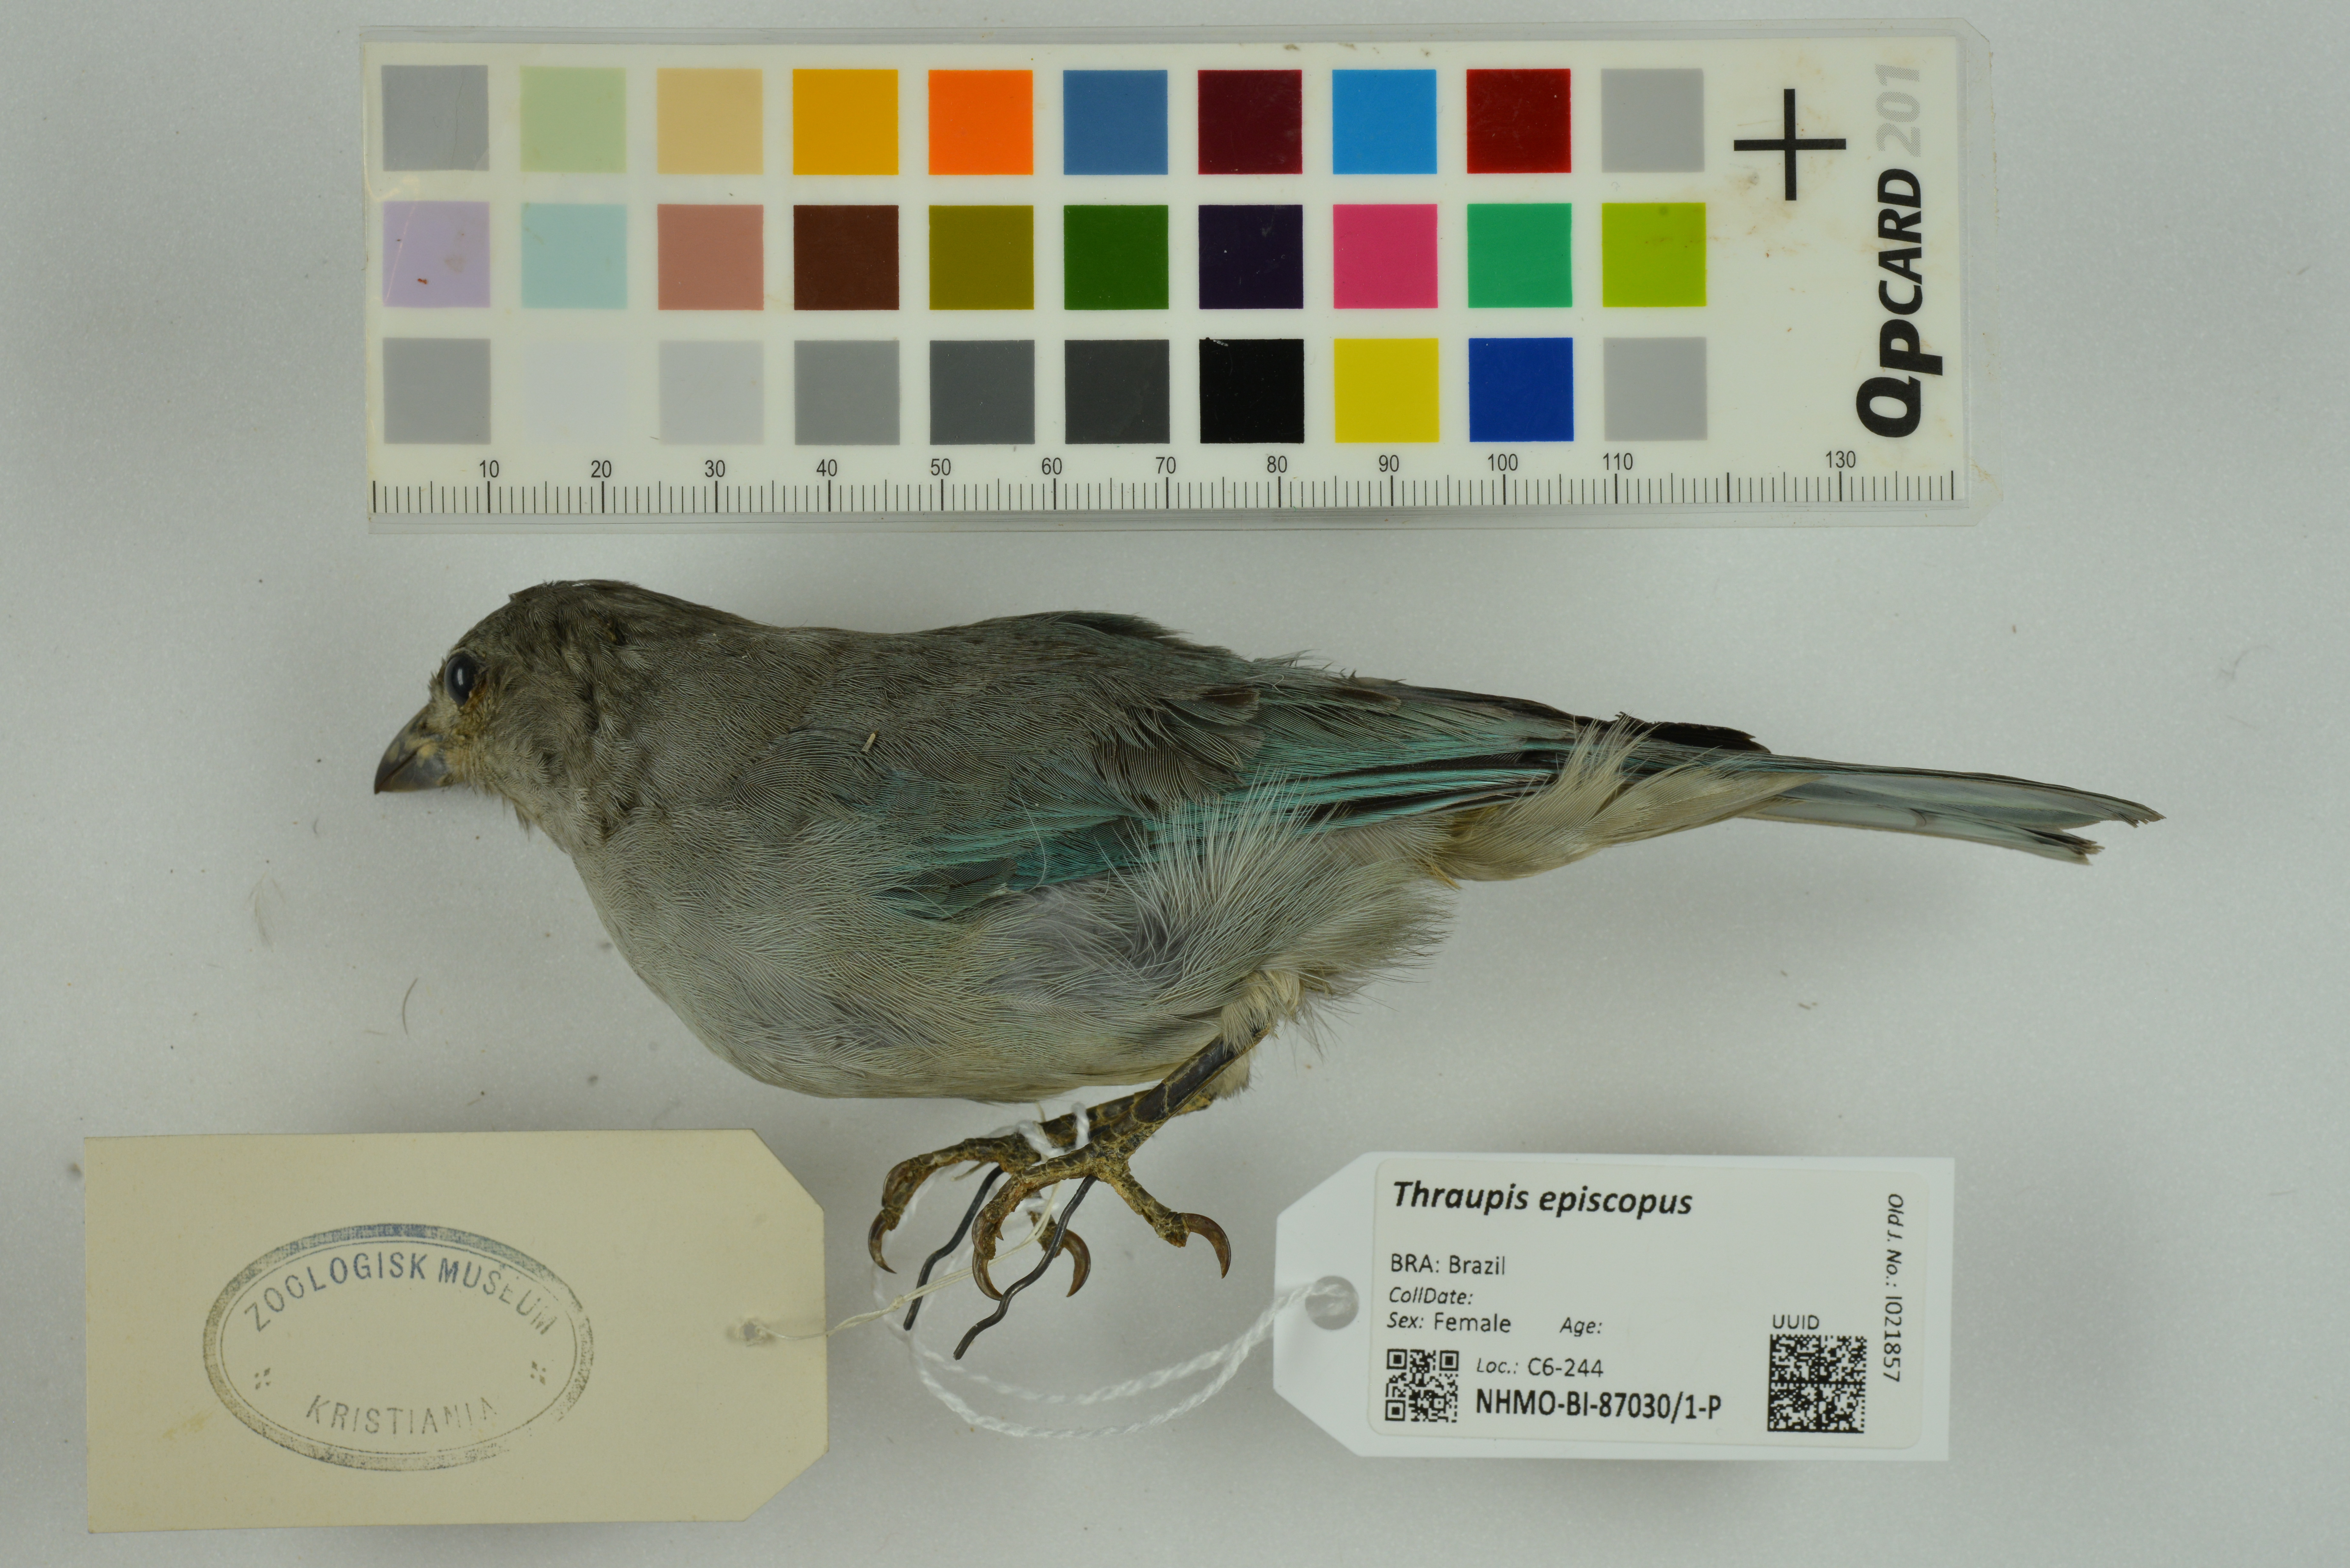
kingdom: Animalia
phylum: Chordata
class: Aves
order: Passeriformes
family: Thraupidae
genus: Thraupis
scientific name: Thraupis episcopus
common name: Blue-grey tanager
